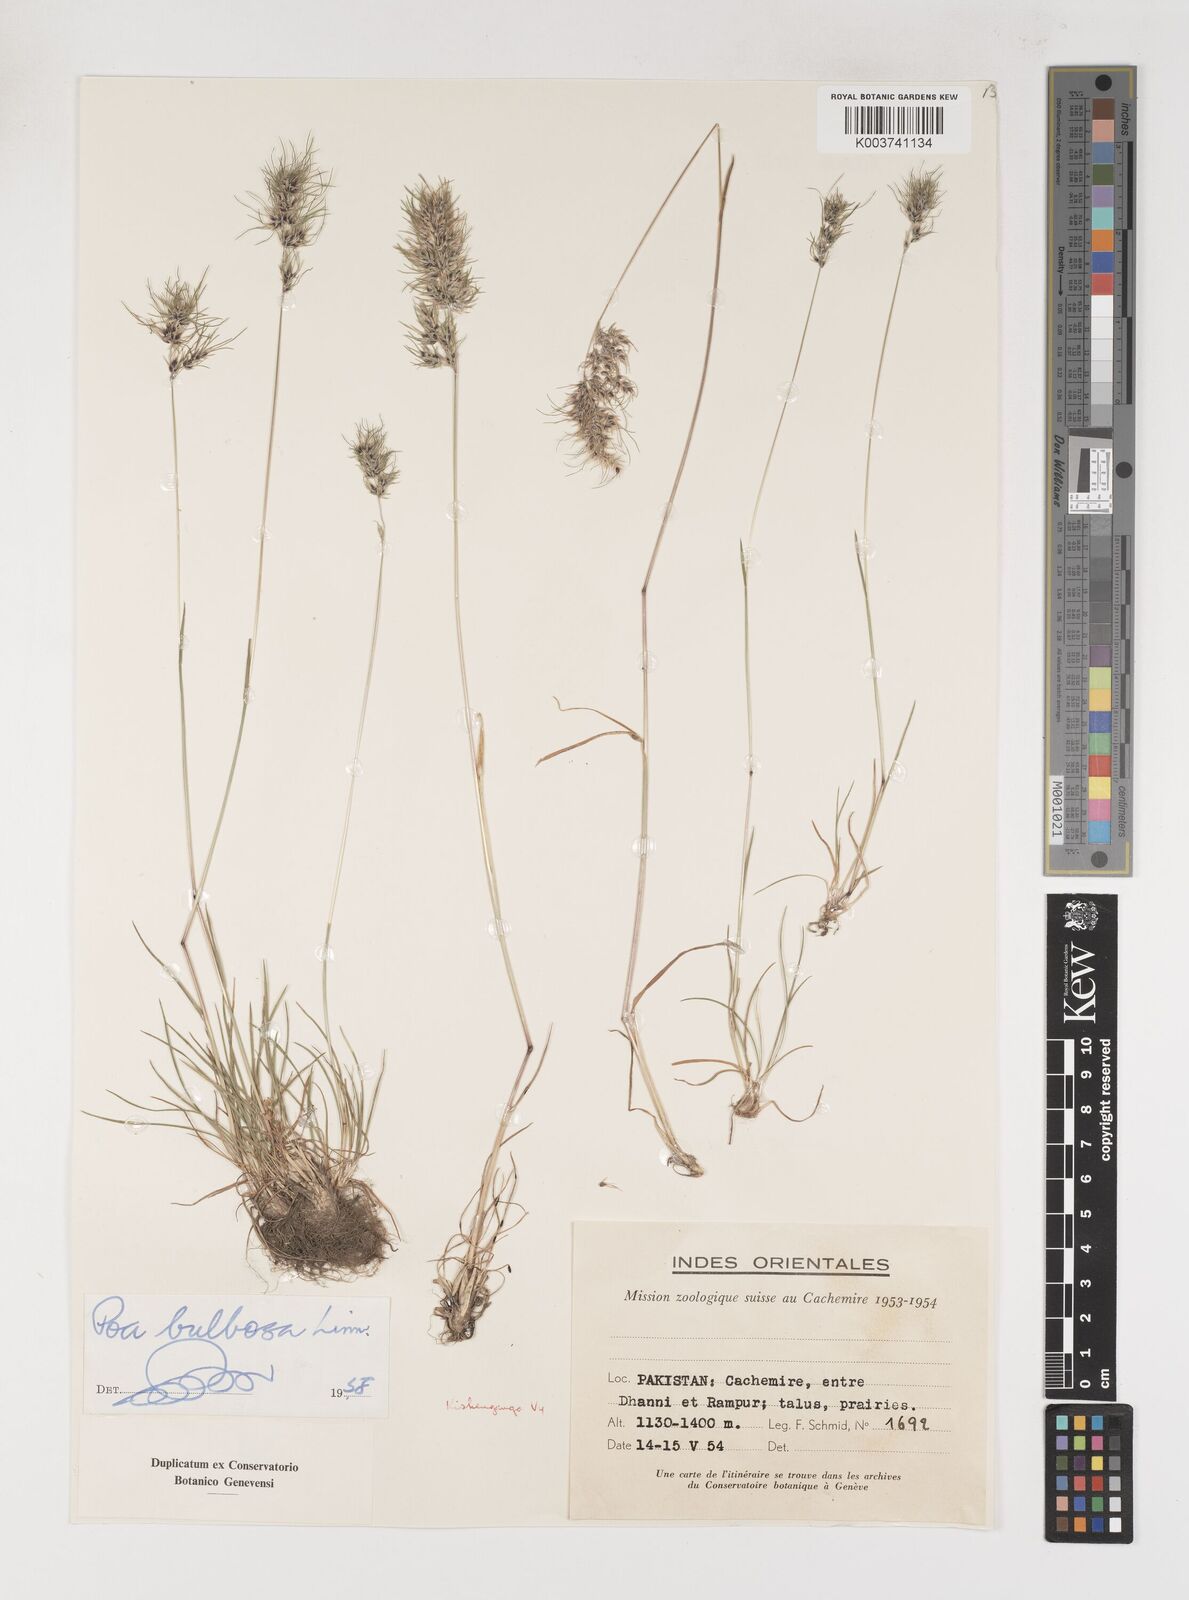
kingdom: Plantae
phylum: Tracheophyta
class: Liliopsida
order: Poales
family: Poaceae
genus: Poa
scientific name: Poa bulbosa
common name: Bulbous bluegrass
